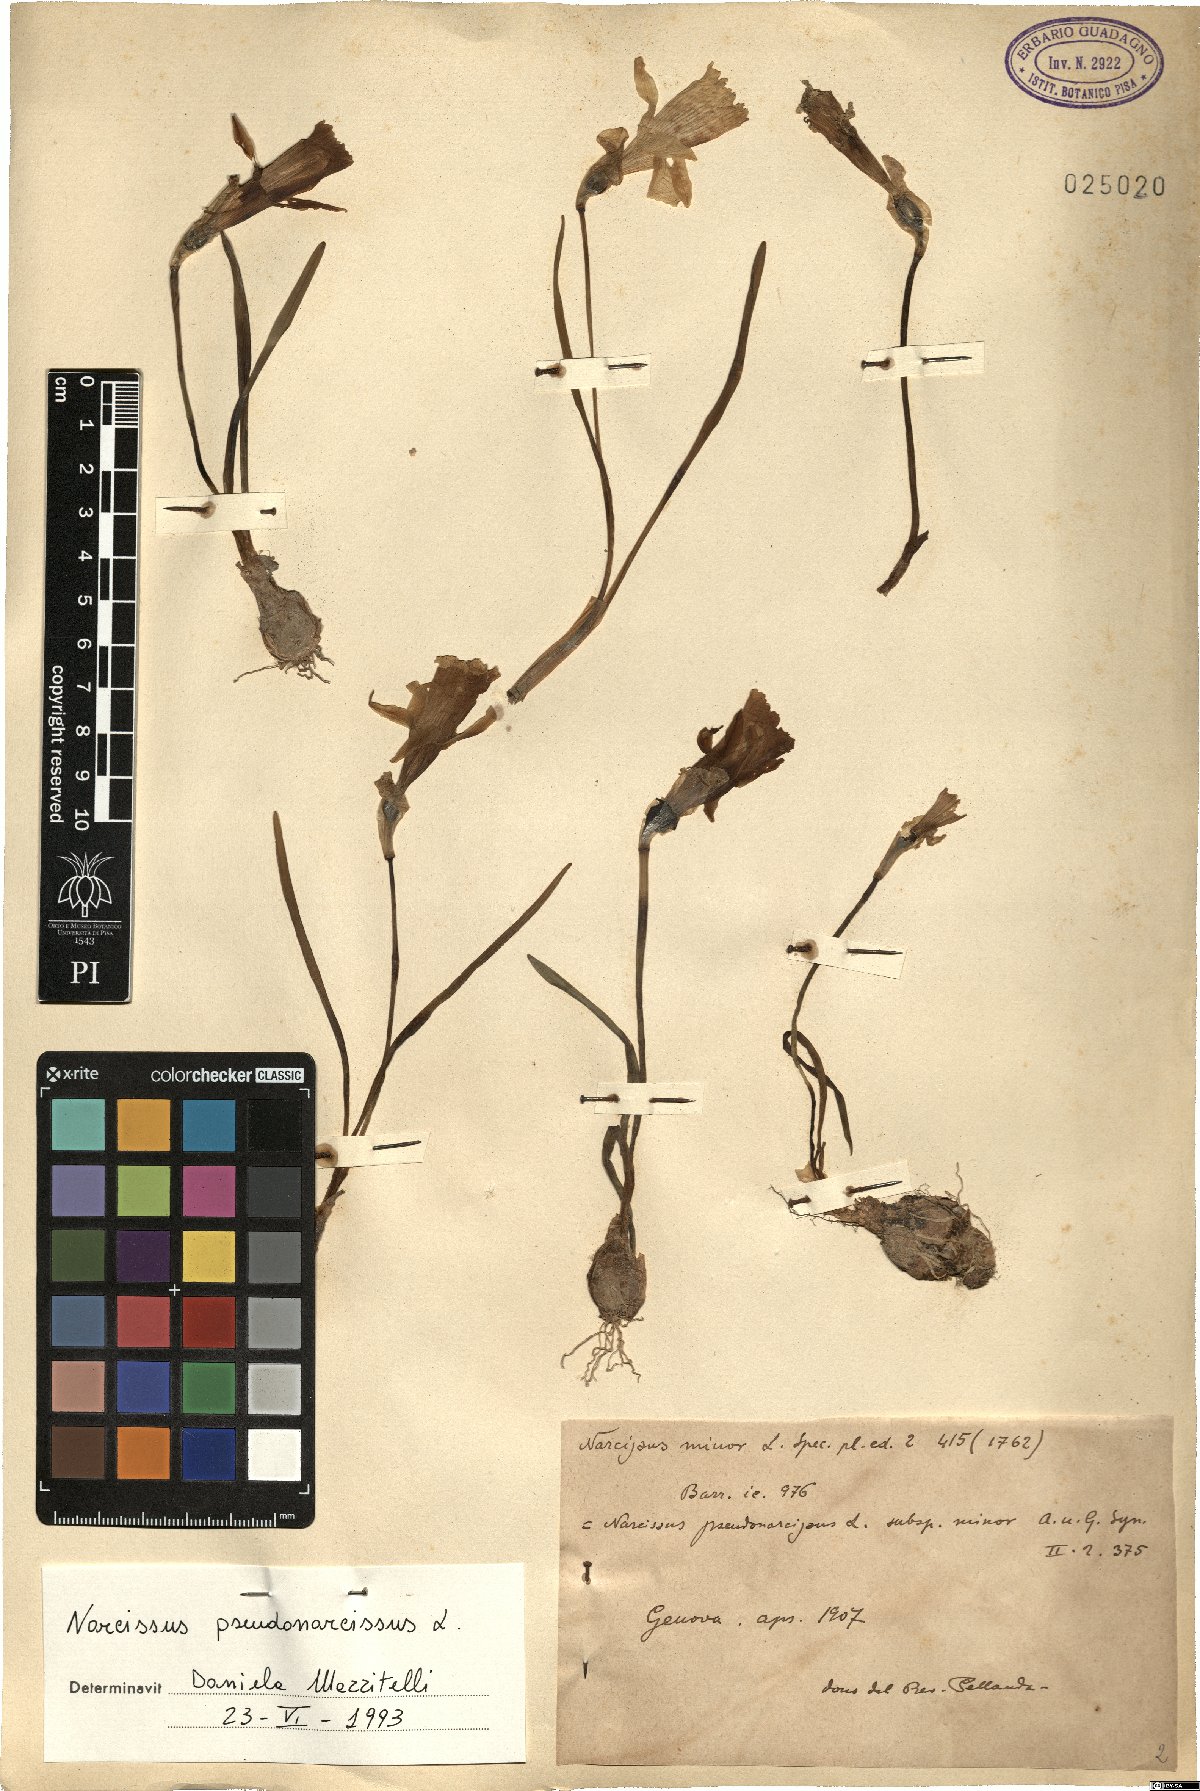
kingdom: Plantae
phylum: Tracheophyta
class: Liliopsida
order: Asparagales
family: Amaryllidaceae
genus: Narcissus
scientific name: Narcissus pseudonarcissus
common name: Daffodil
